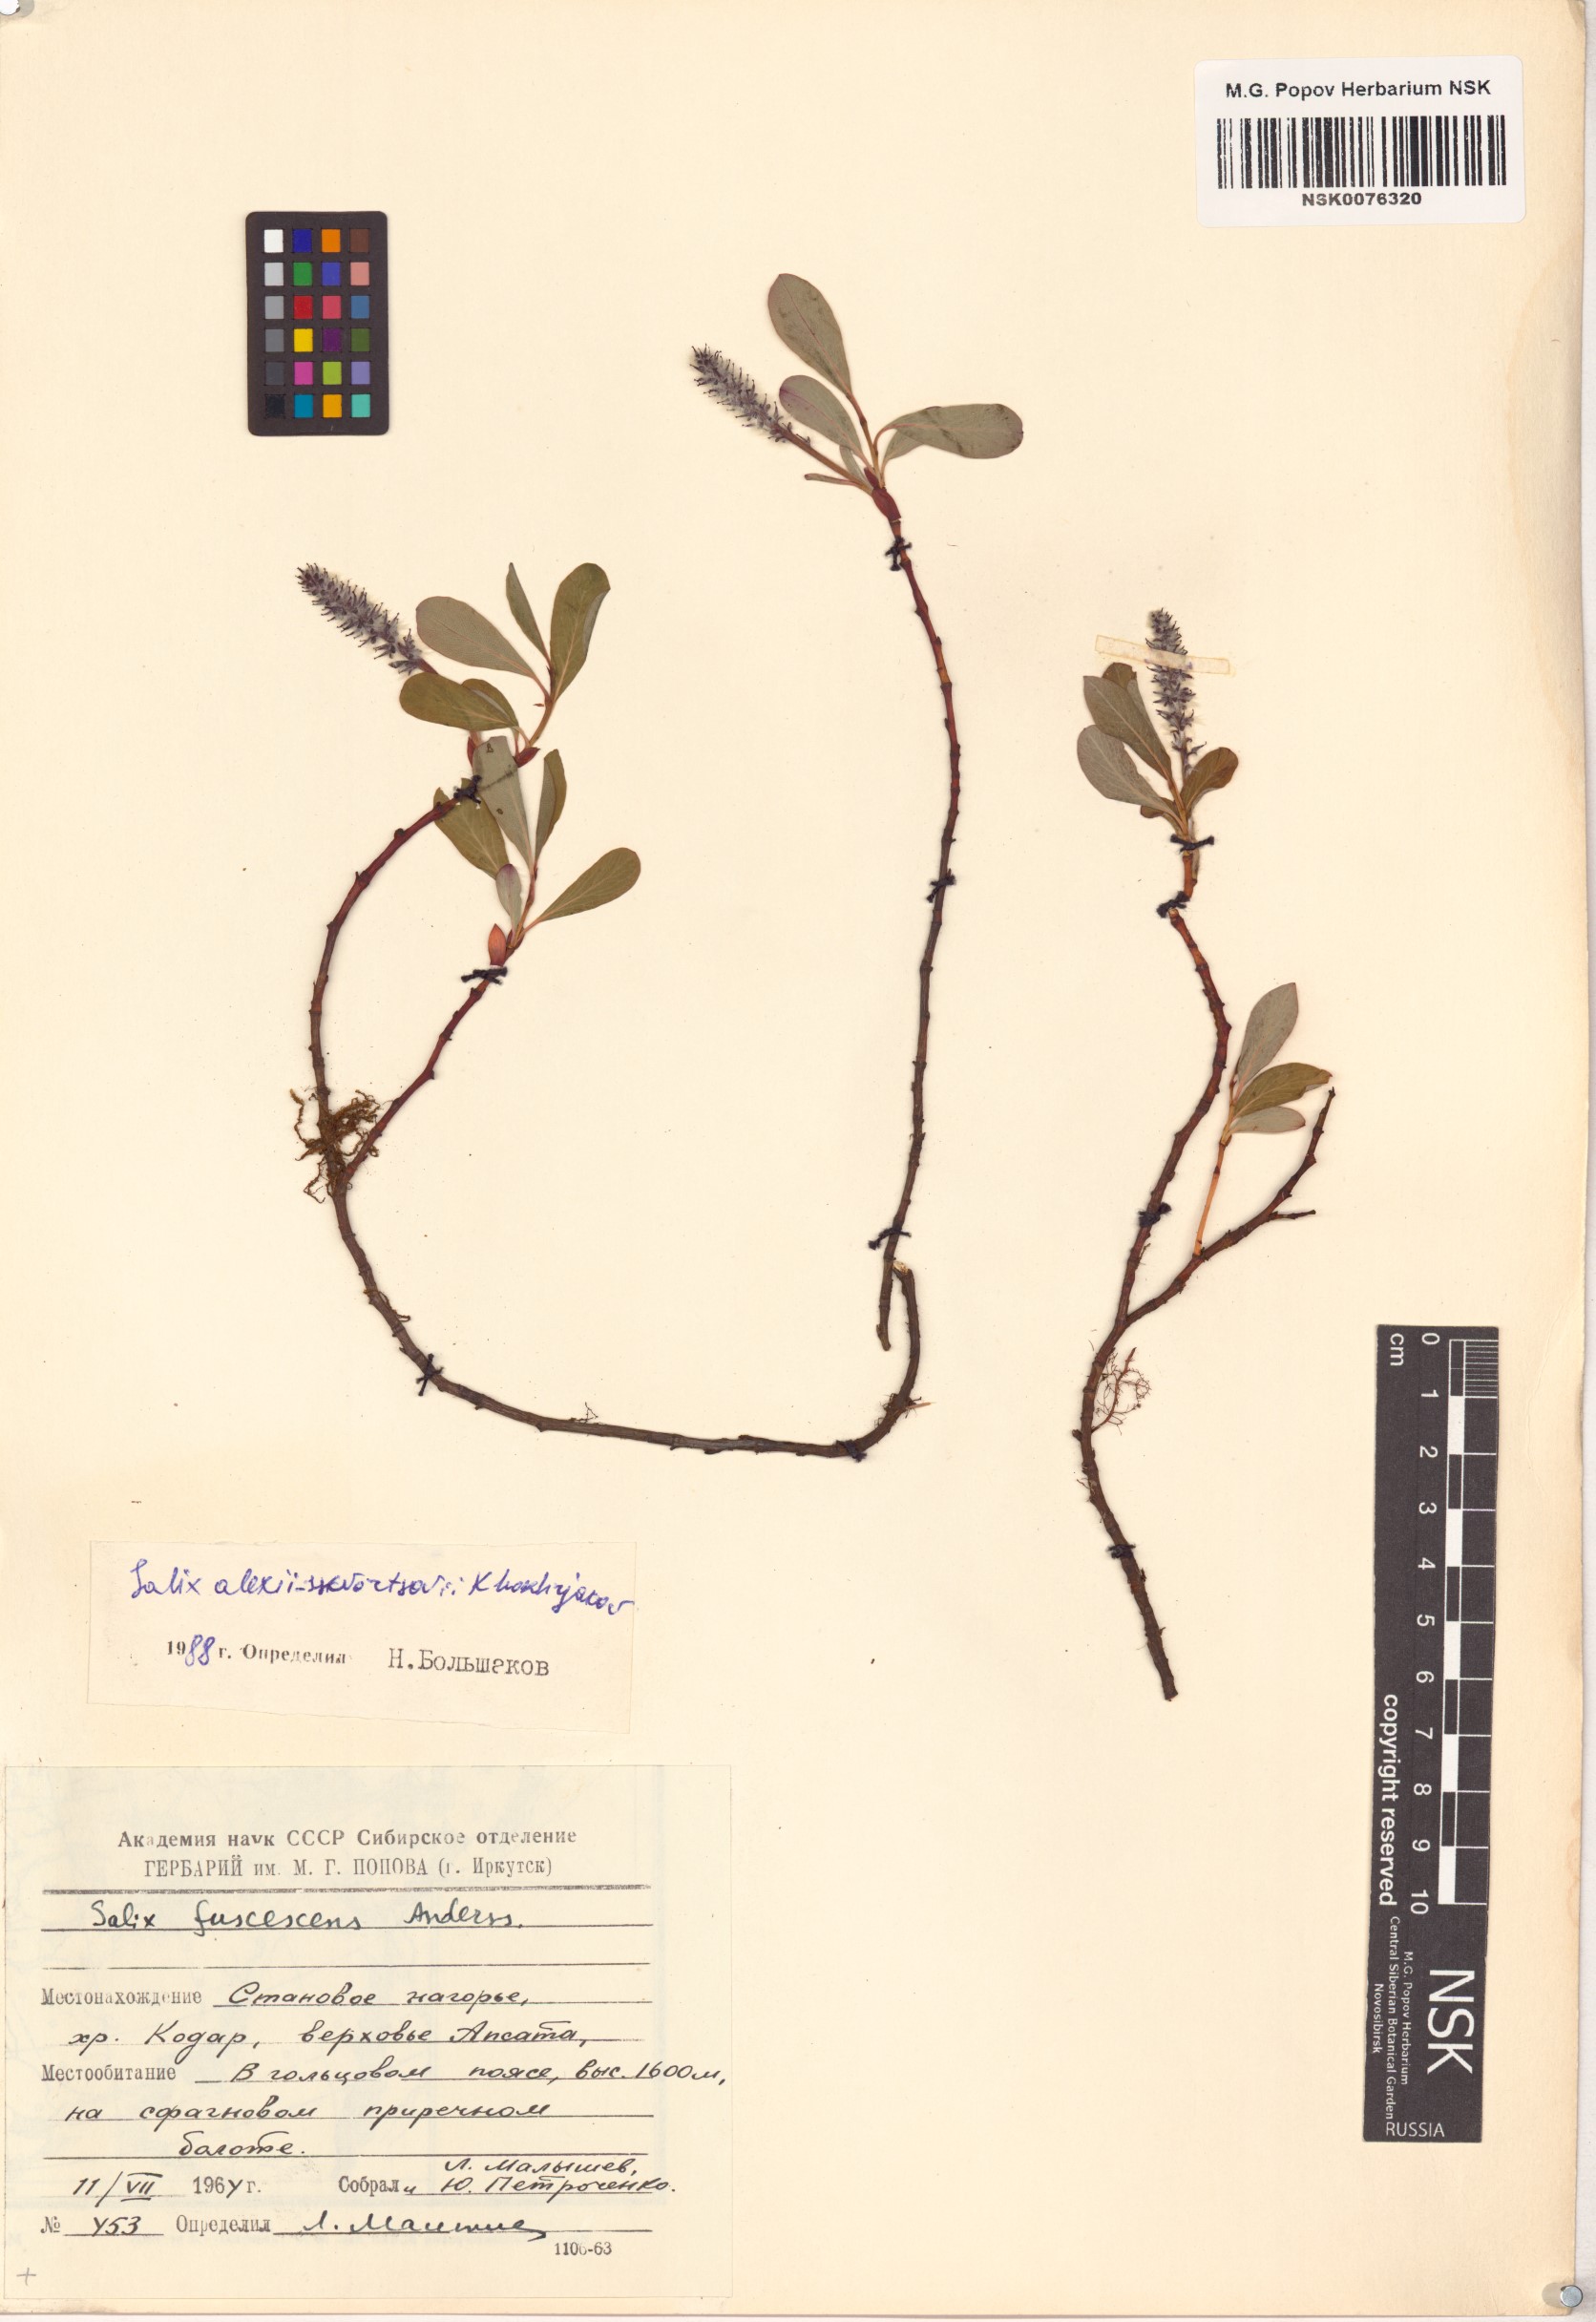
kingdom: Plantae
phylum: Tracheophyta
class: Magnoliopsida
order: Malpighiales
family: Salicaceae
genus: Salix
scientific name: Salix alexii-skvortzovii
